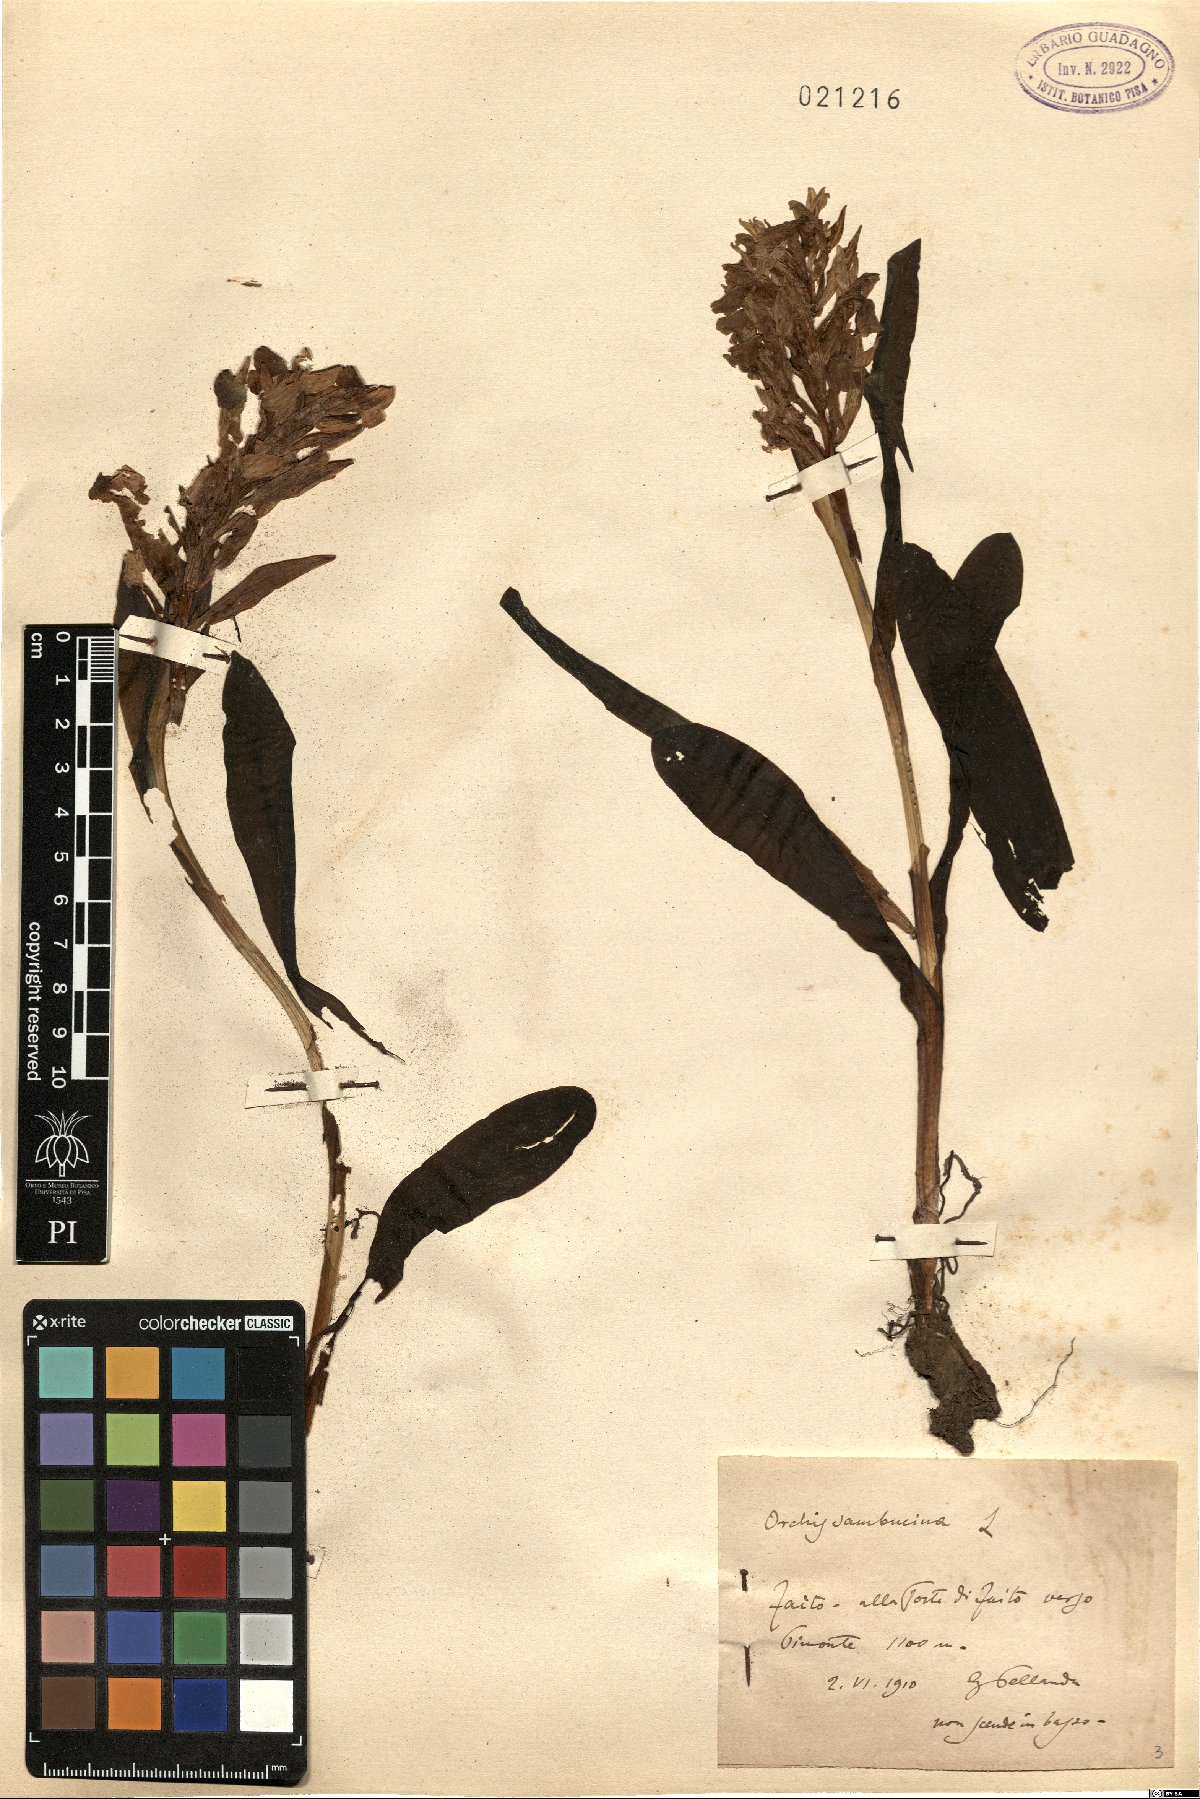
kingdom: Plantae
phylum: Tracheophyta
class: Liliopsida
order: Asparagales
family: Orchidaceae
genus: Dactylorhiza
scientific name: Dactylorhiza sambucina
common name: Elder-flowered orchid
